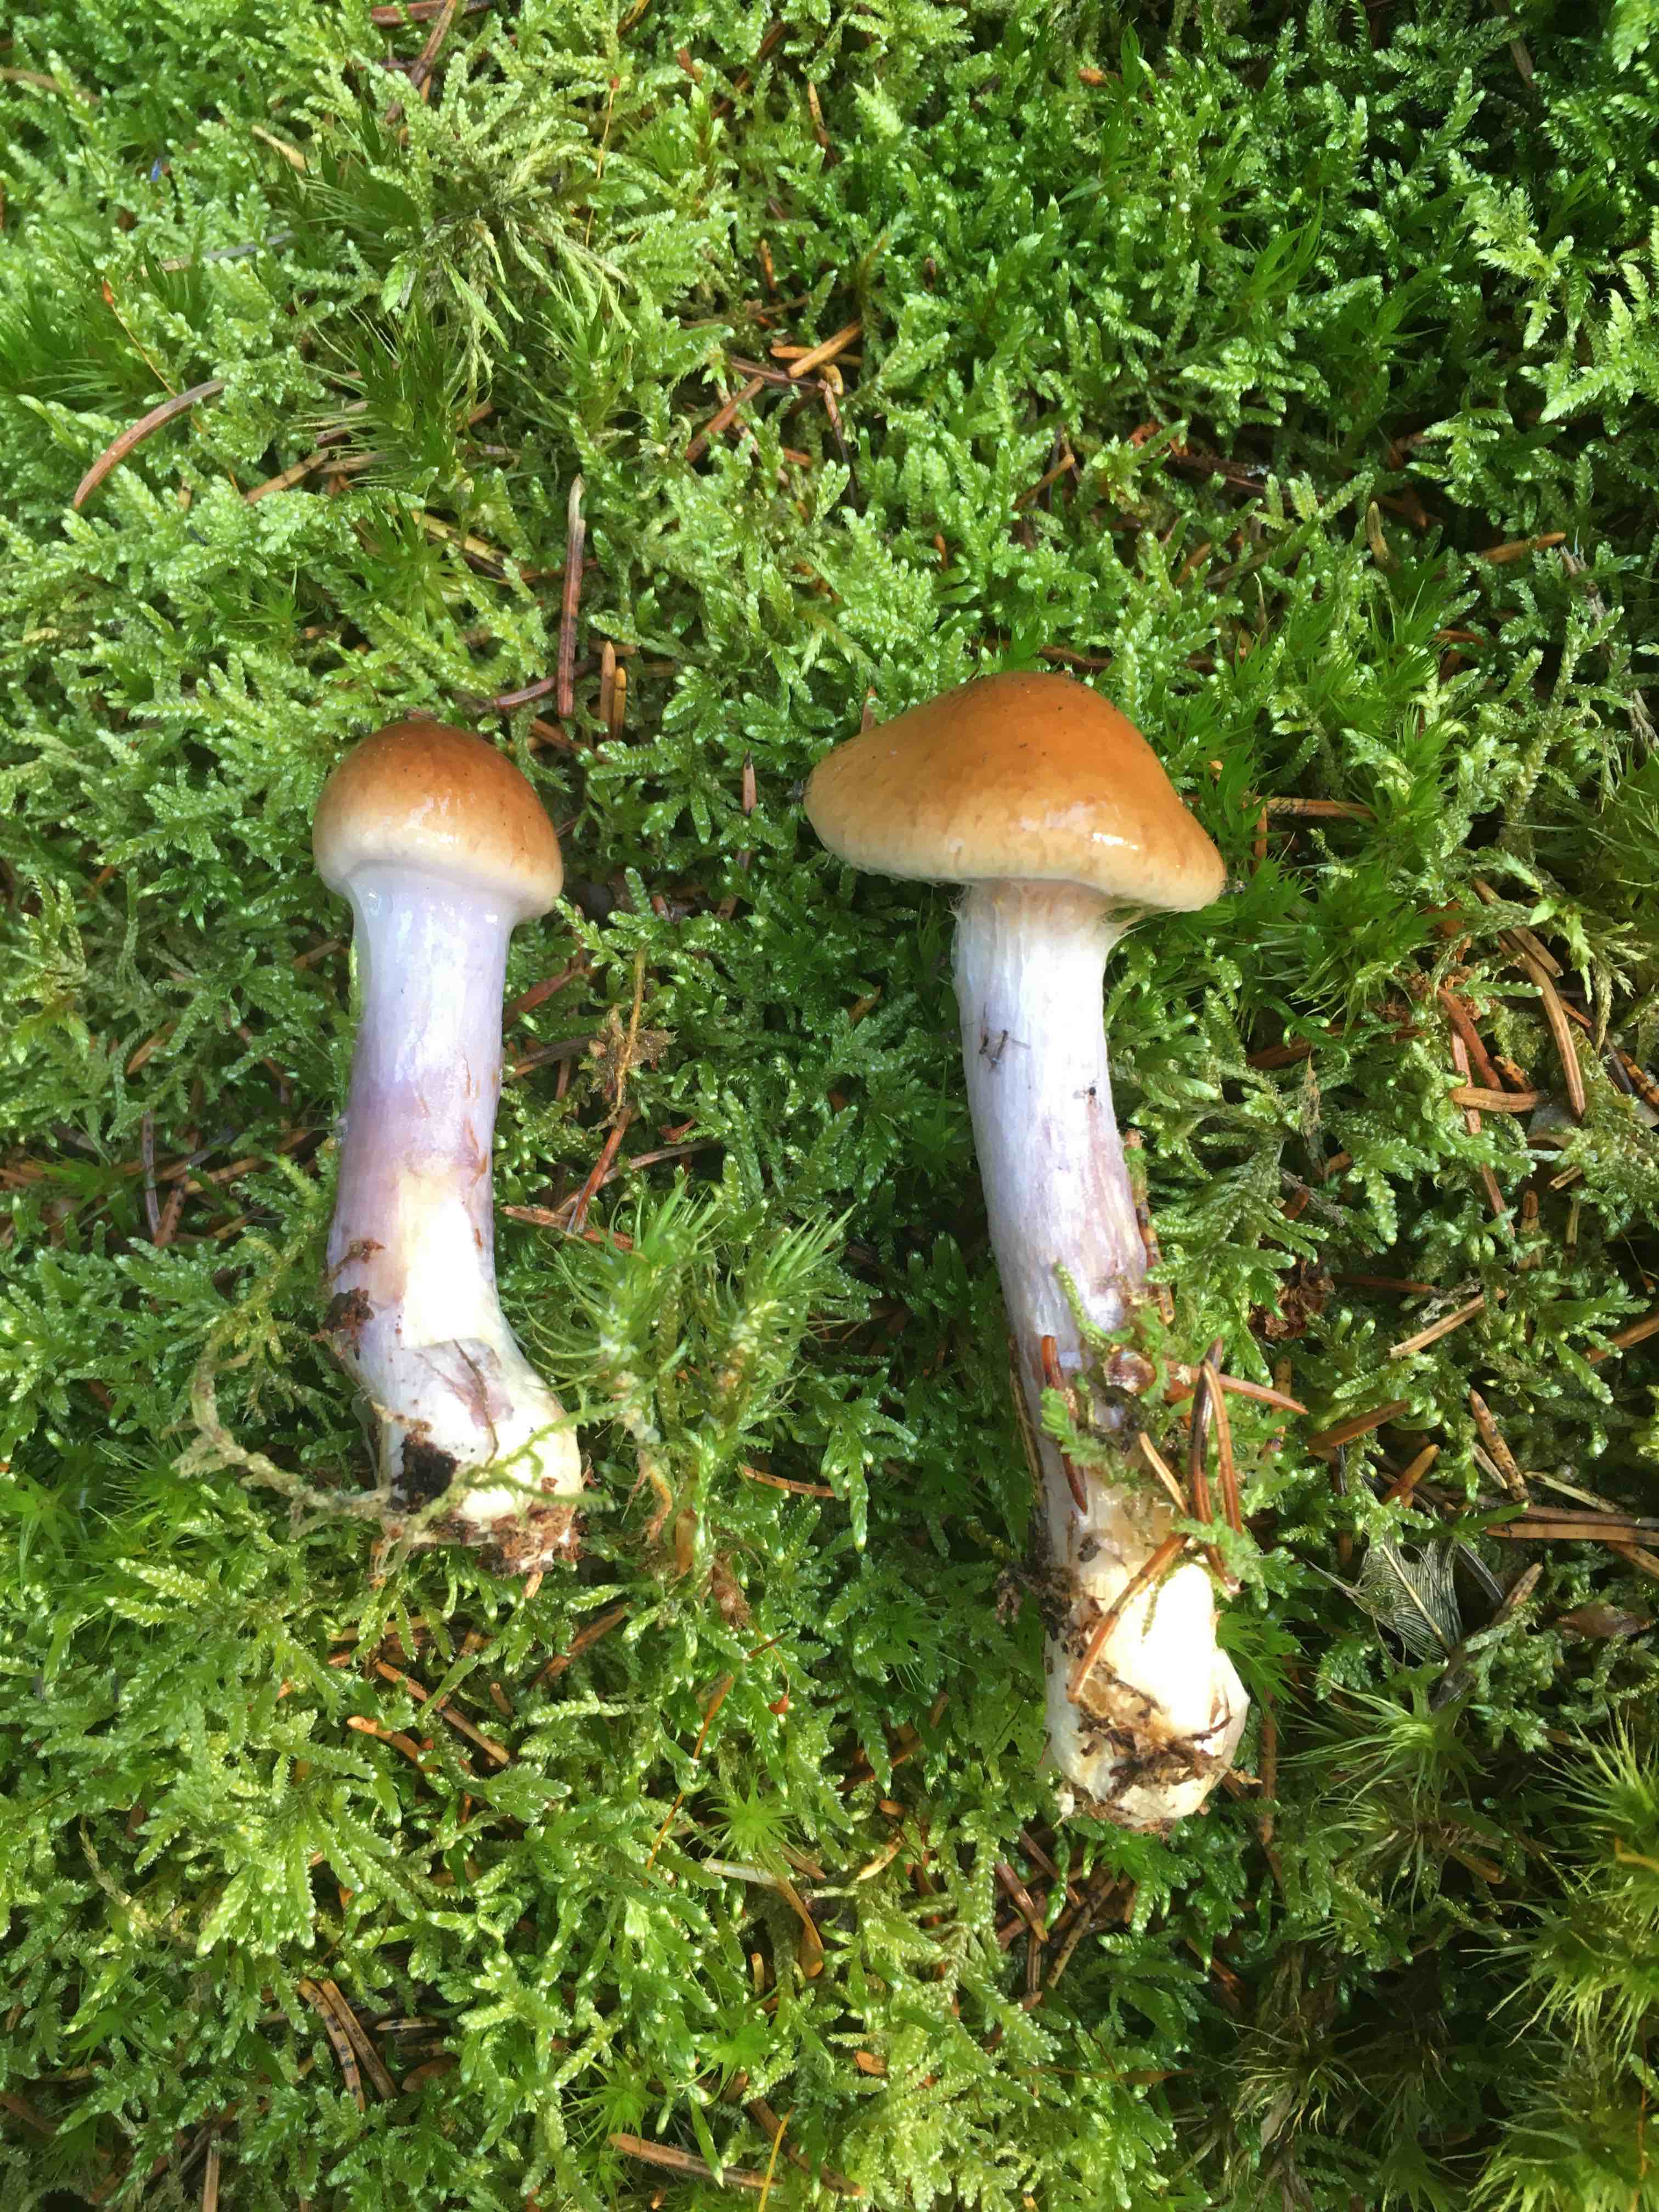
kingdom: Fungi
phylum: Basidiomycota
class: Agaricomycetes
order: Agaricales
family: Cortinariaceae
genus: Cortinarius
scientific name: Cortinarius collinitus
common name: spættet slørhat
